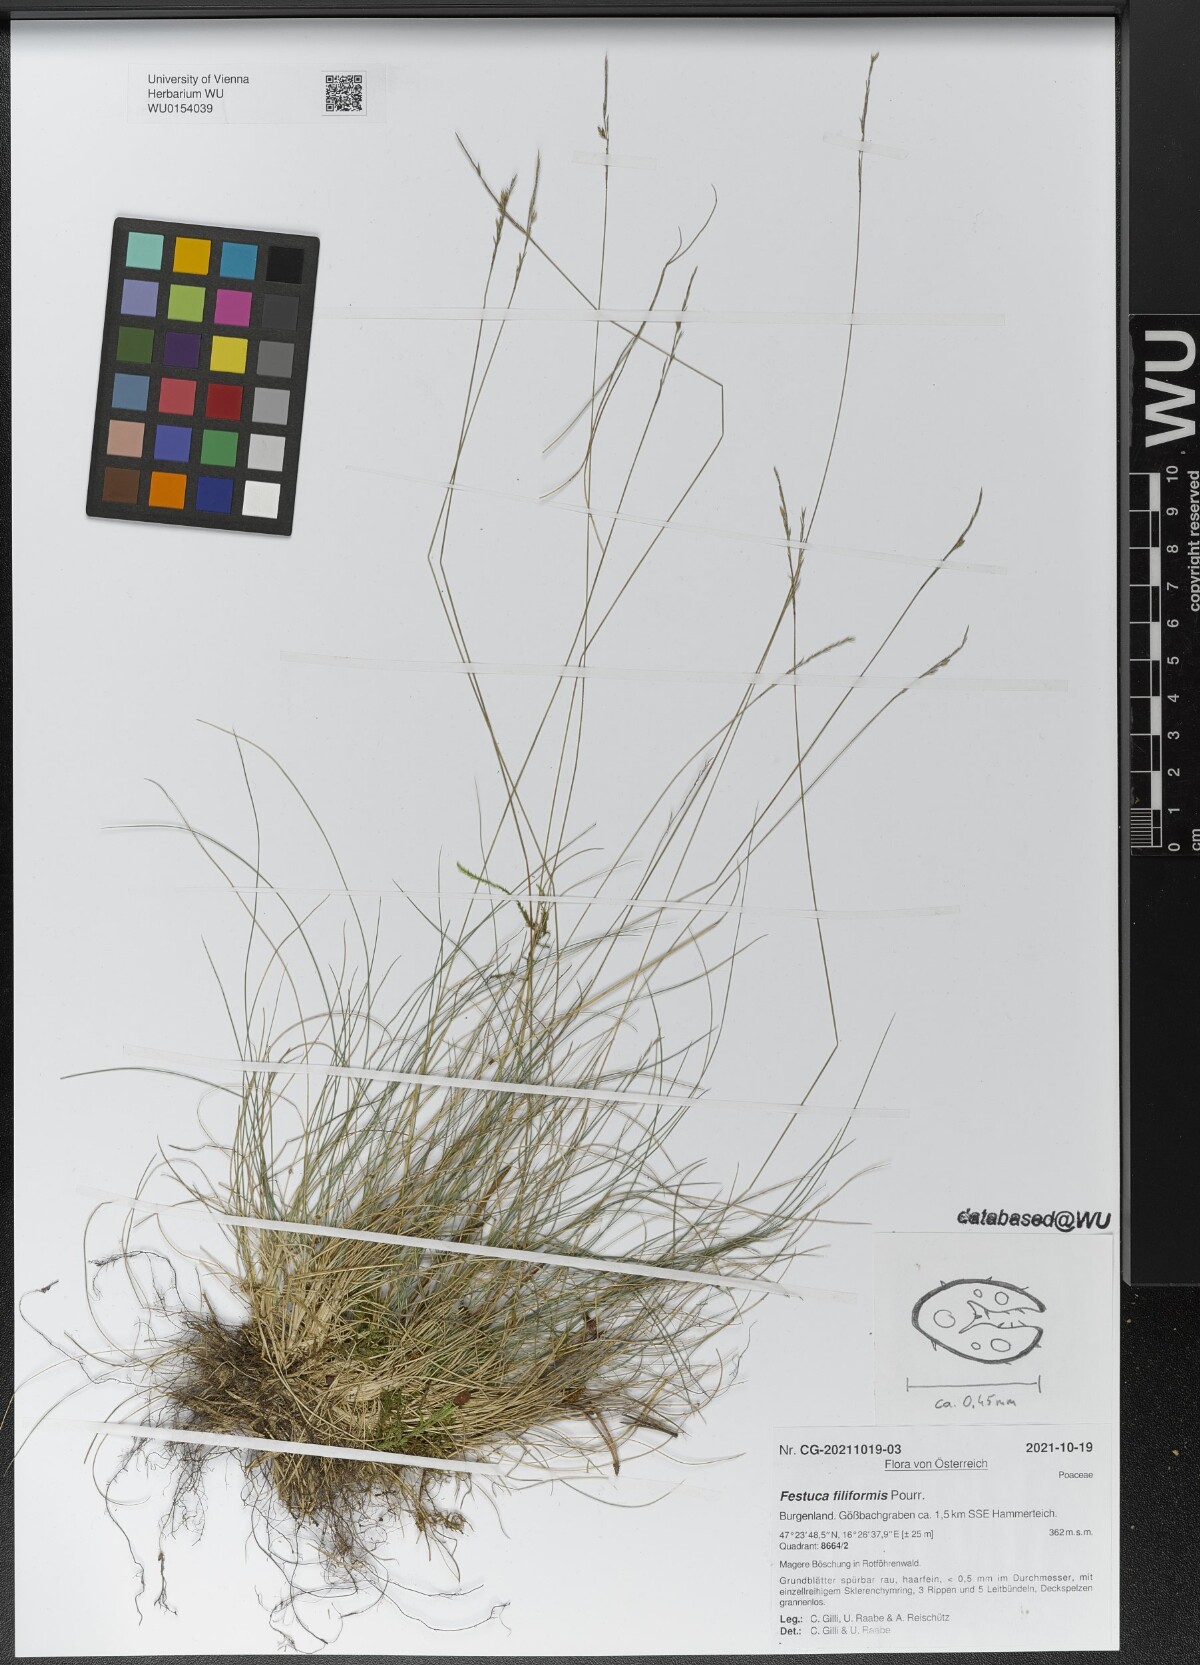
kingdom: Plantae
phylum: Tracheophyta
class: Liliopsida
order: Poales
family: Poaceae
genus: Festuca
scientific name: Festuca filiformis
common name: Fine-leaved sheep's-fescue
